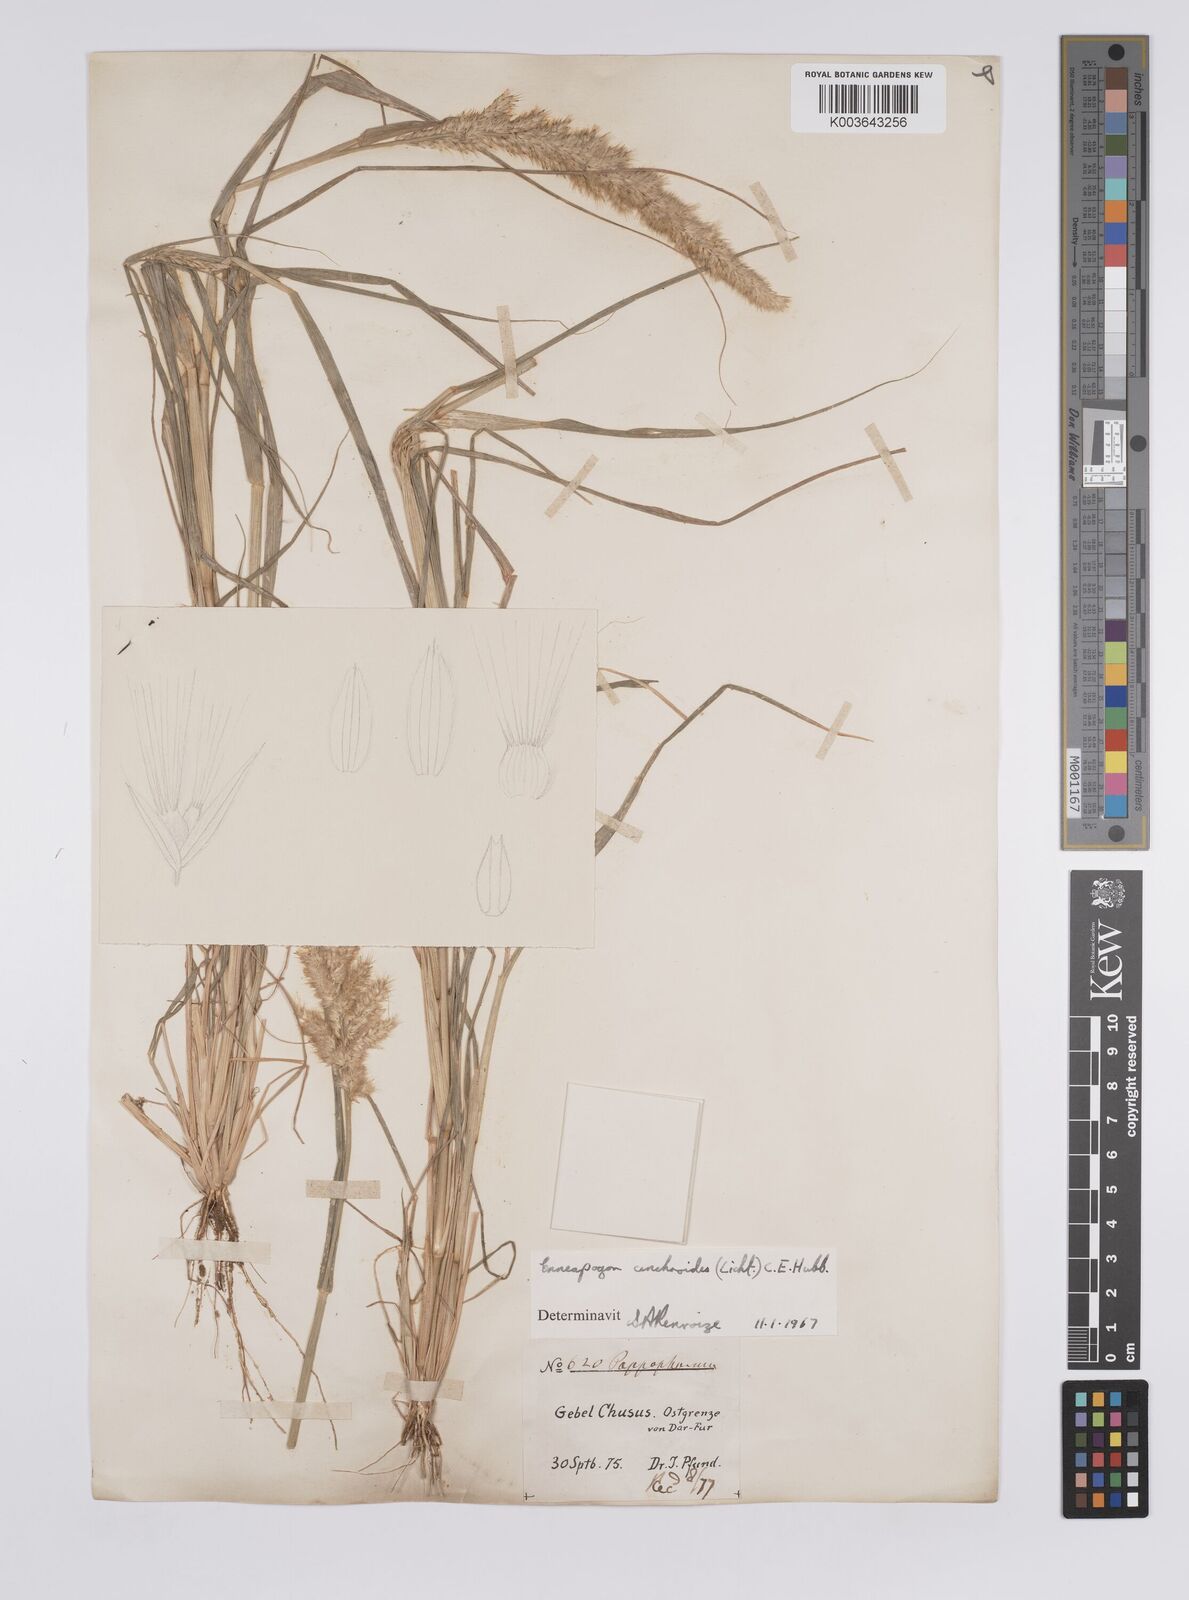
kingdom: Plantae
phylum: Tracheophyta
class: Liliopsida
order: Poales
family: Poaceae
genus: Enneapogon
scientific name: Enneapogon cenchroides
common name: Soft feather pappusgrass
